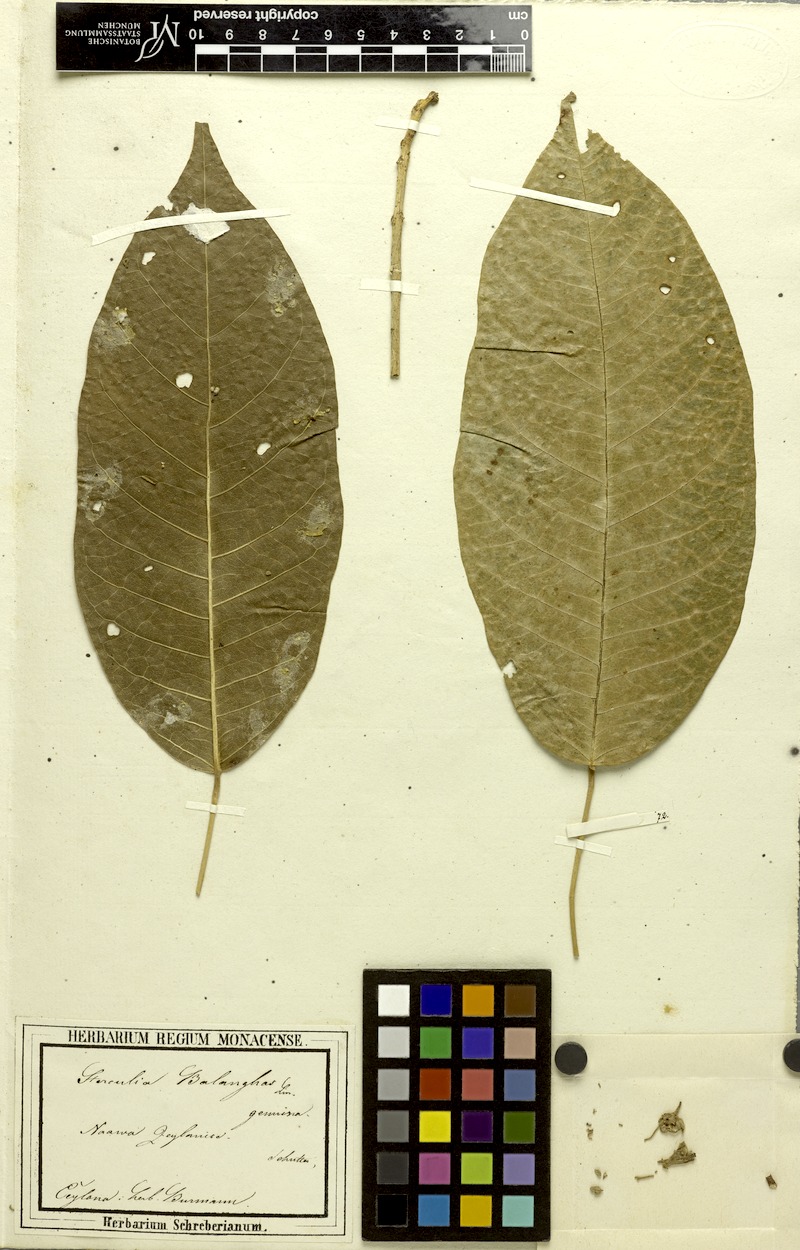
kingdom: Plantae
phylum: Tracheophyta
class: Magnoliopsida
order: Malvales
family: Malvaceae
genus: Sterculia
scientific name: Sterculia balanghas
